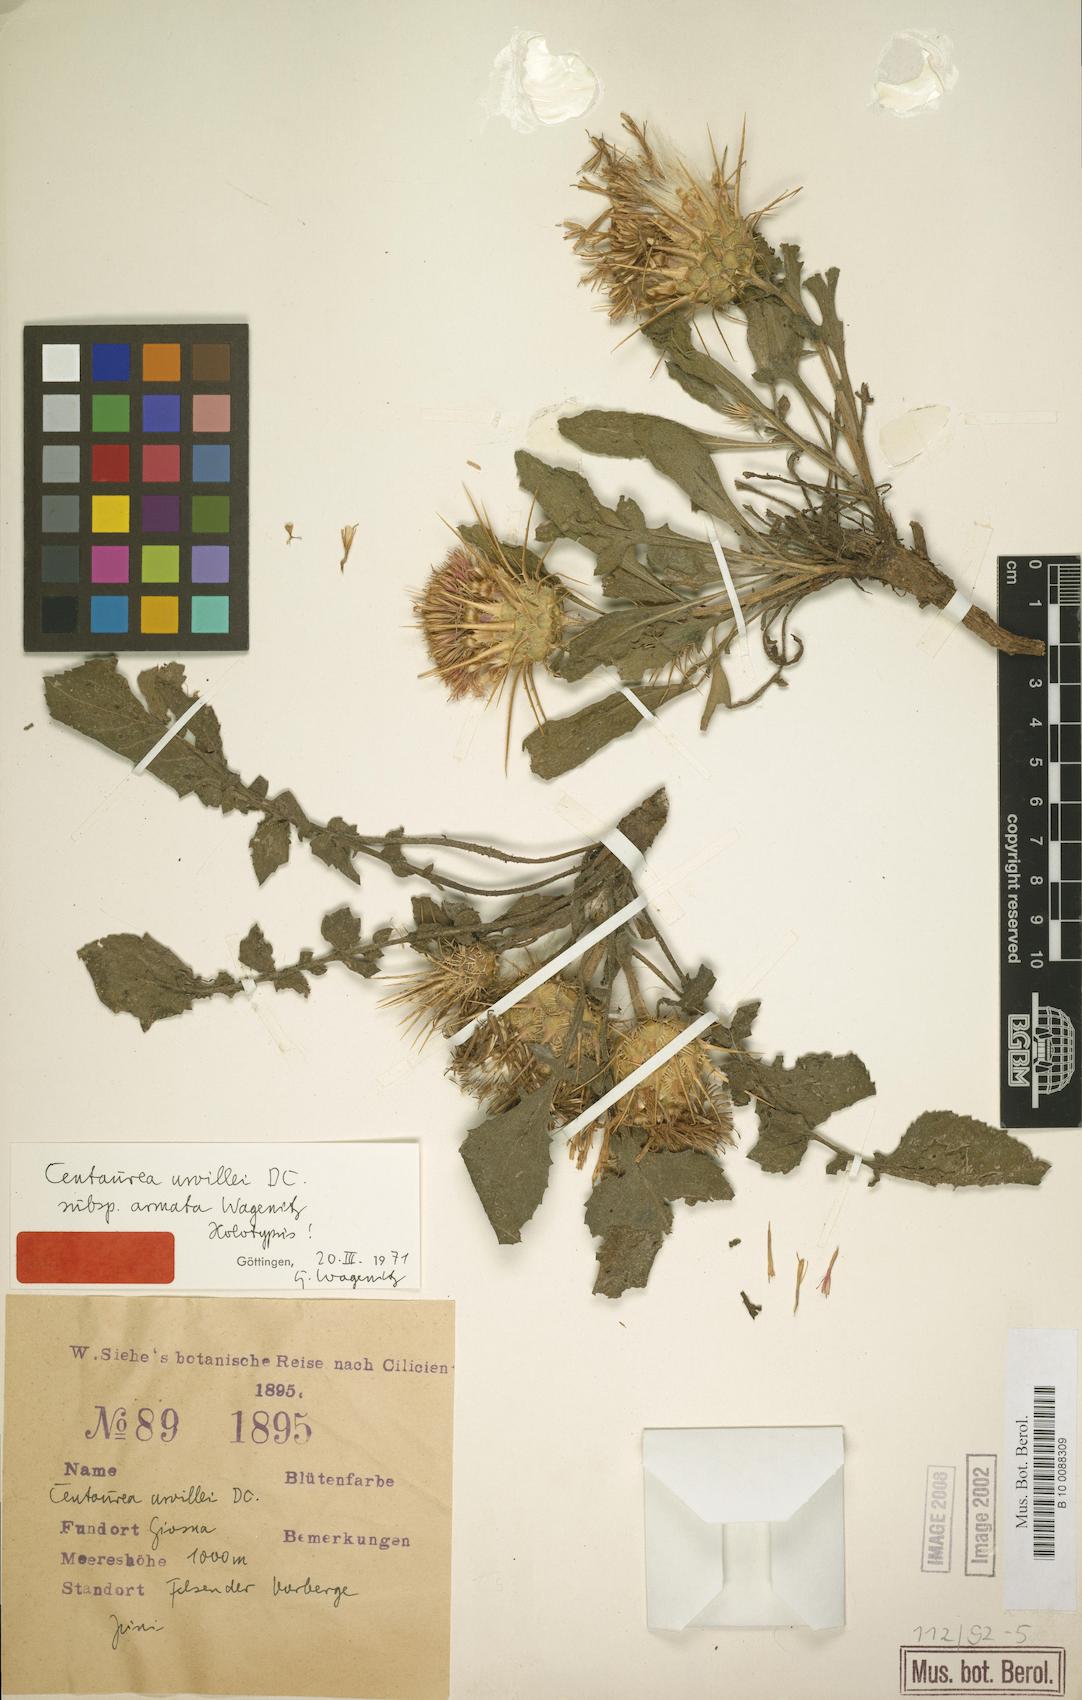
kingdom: Plantae
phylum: Tracheophyta
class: Magnoliopsida
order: Asterales
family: Asteraceae
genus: Centaurea
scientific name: Centaurea urvillei
